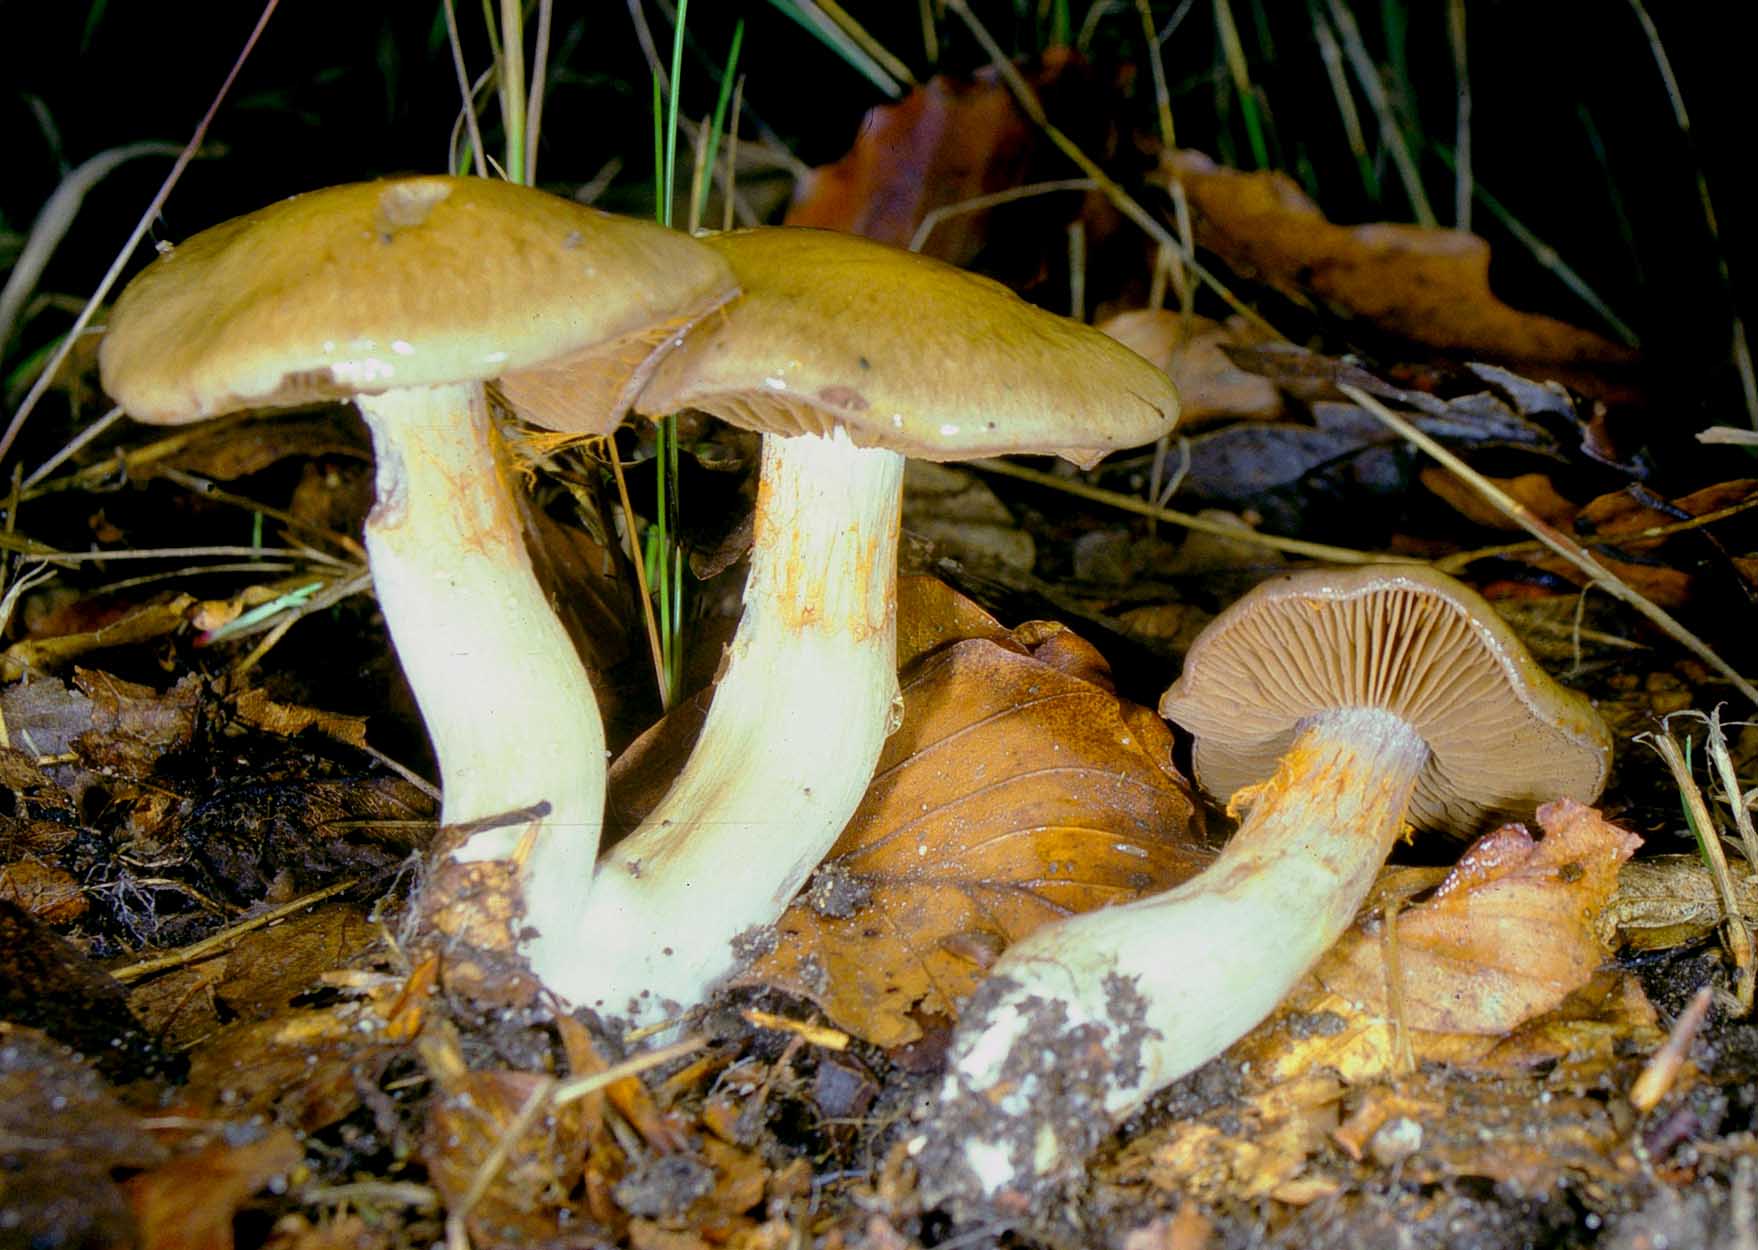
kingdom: Fungi
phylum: Basidiomycota
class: Agaricomycetes
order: Agaricales
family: Cortinariaceae
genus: Cortinarius
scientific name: Cortinarius
